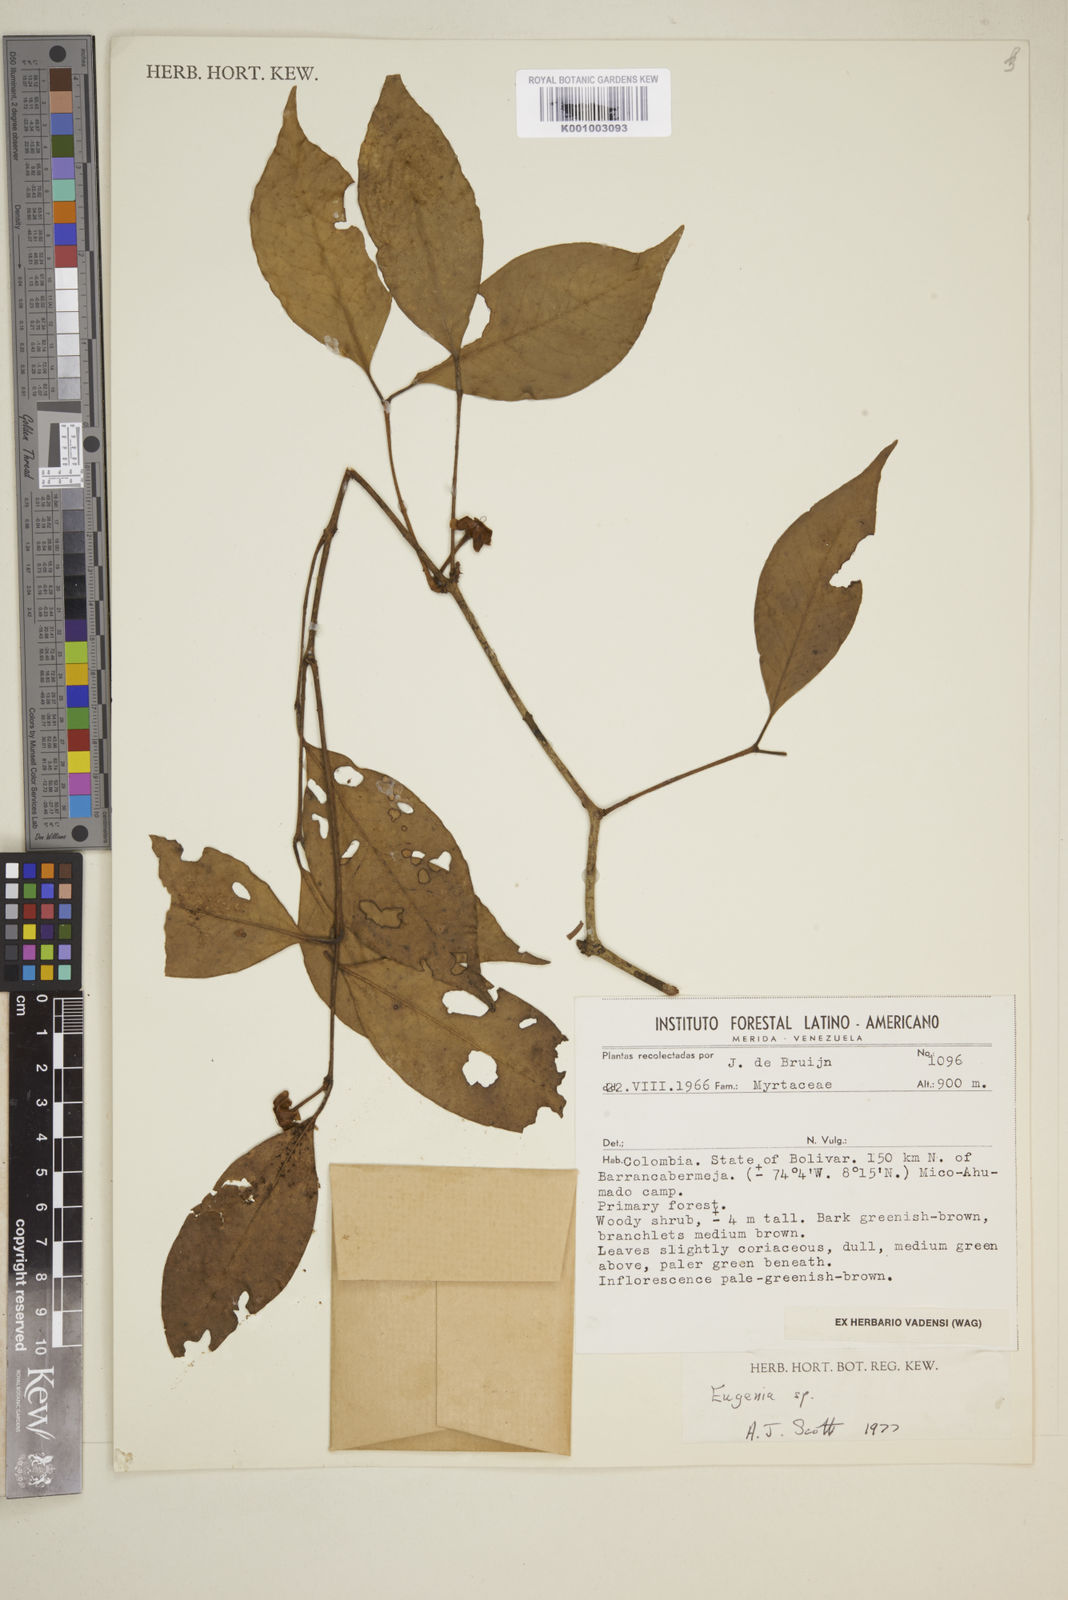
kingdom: Plantae
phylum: Tracheophyta
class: Magnoliopsida
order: Myrtales
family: Myrtaceae
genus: Eugenia
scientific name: Eugenia
